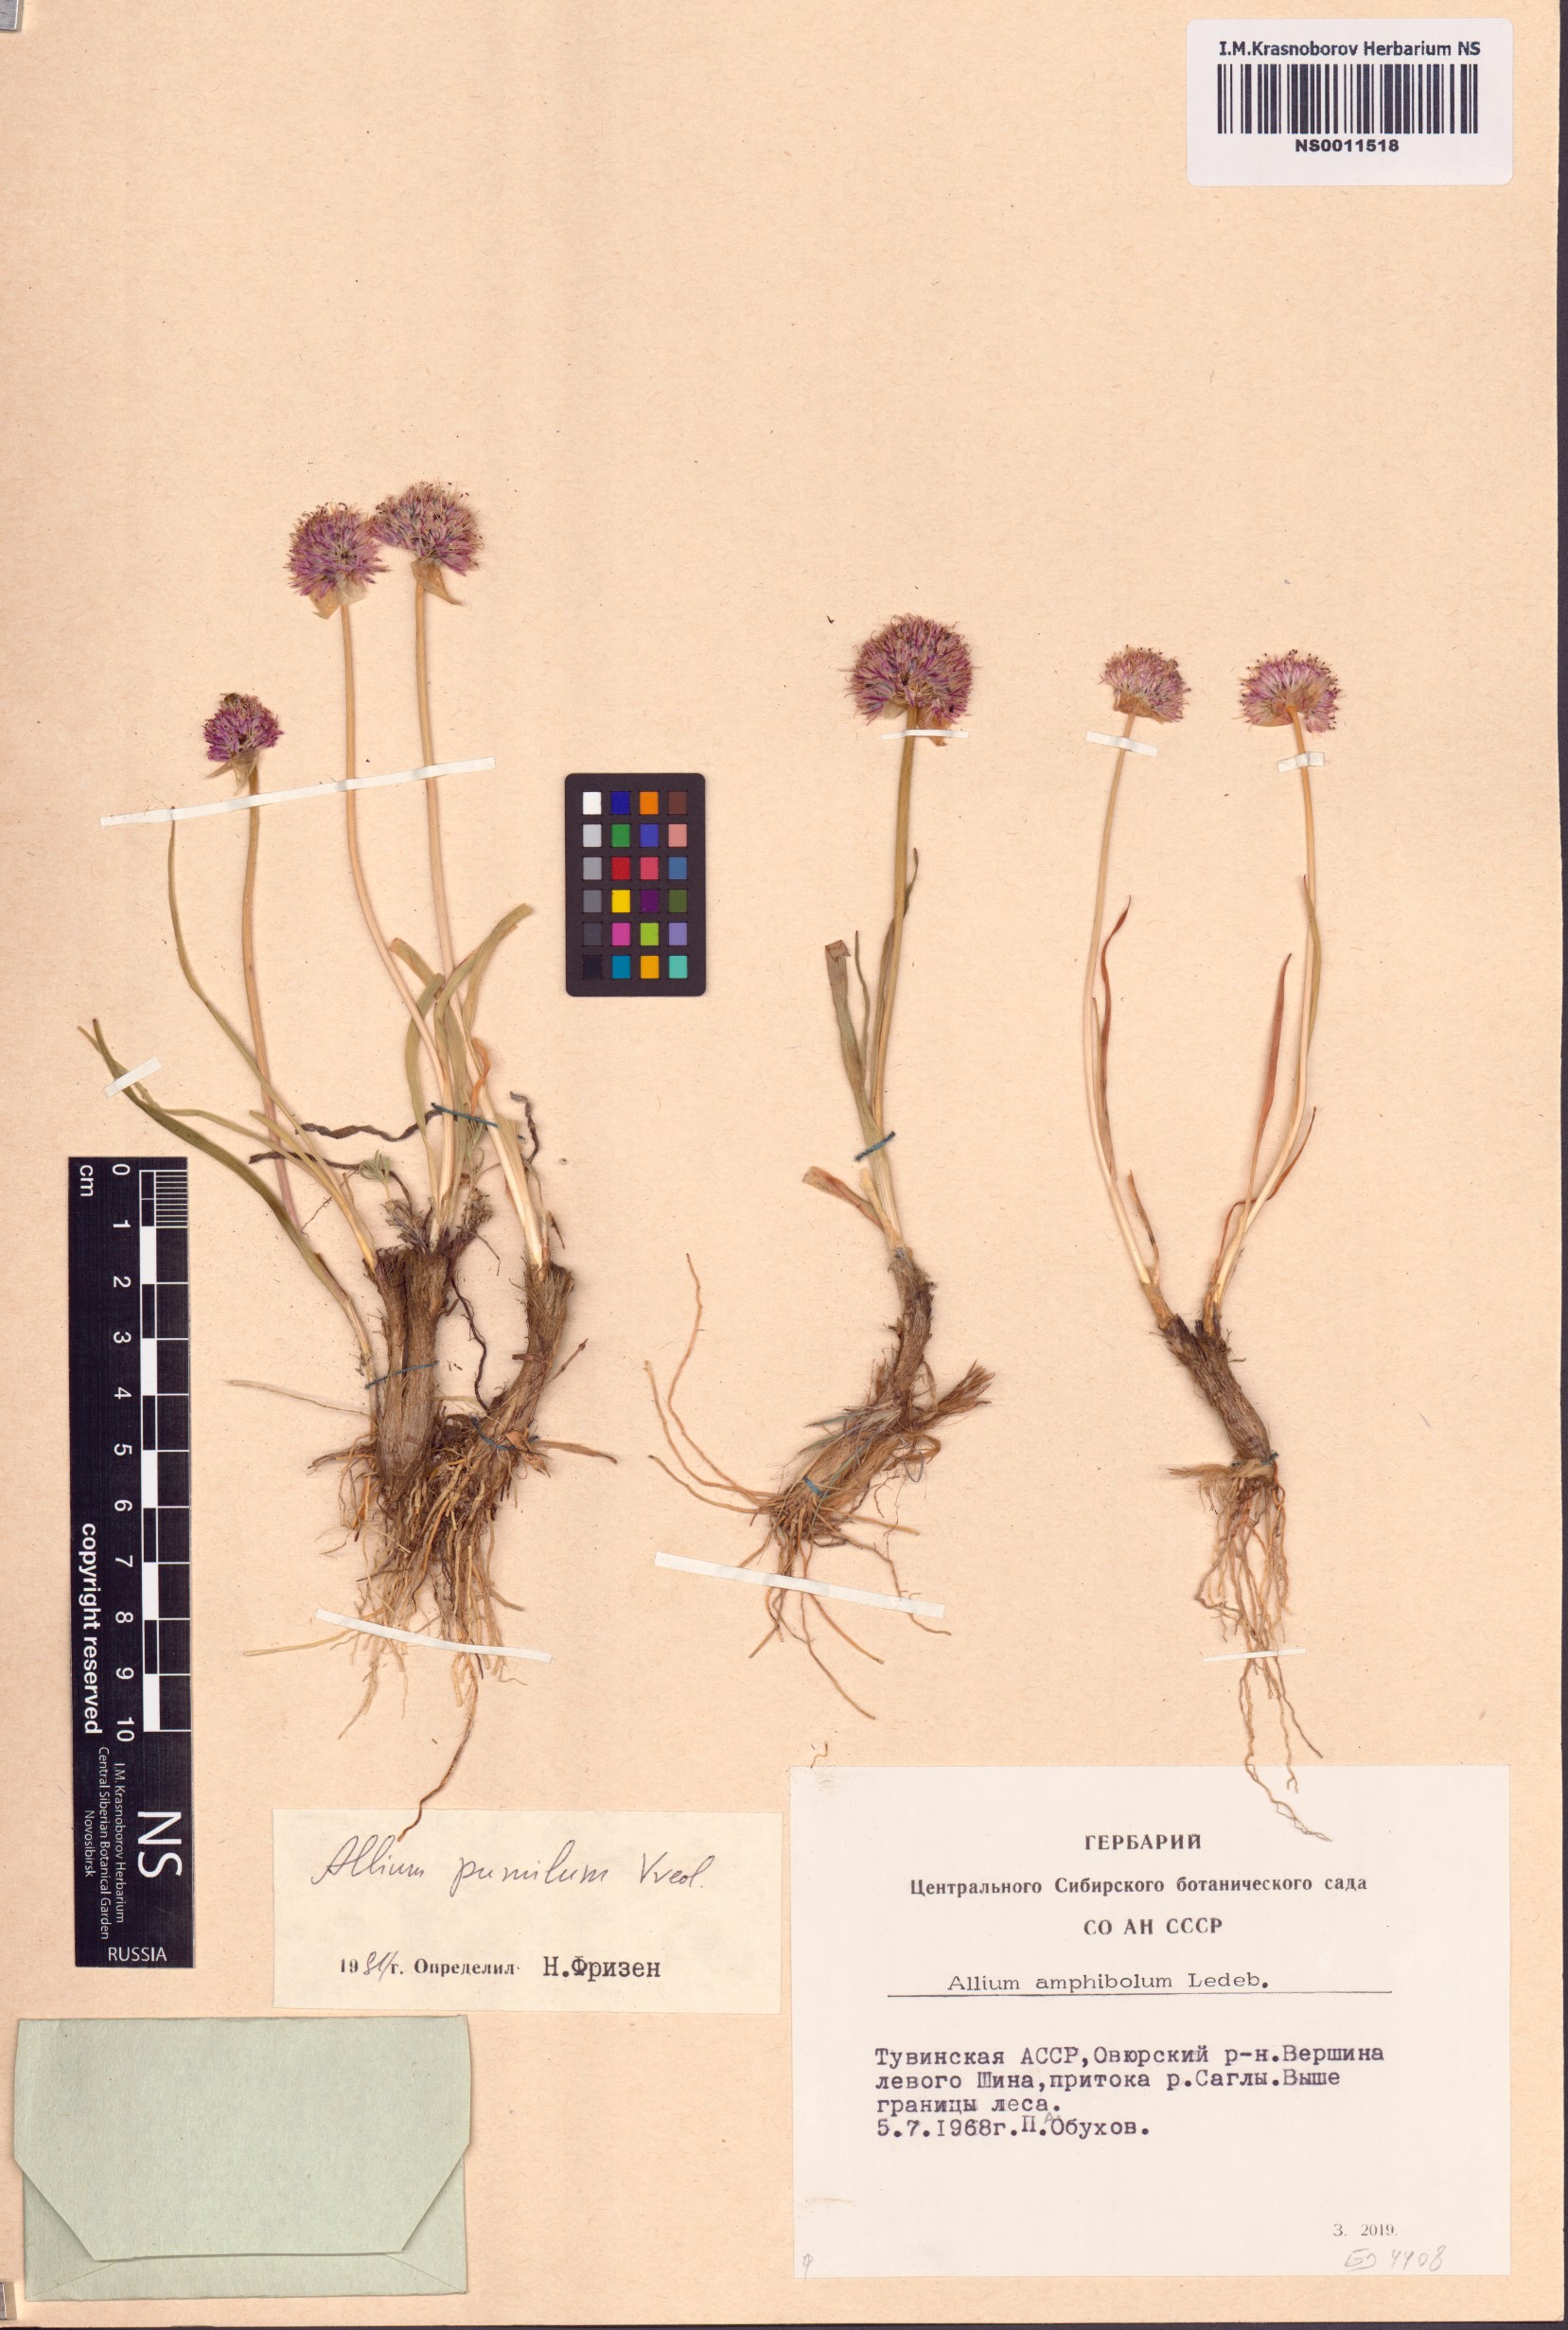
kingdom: Plantae
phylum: Tracheophyta
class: Liliopsida
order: Asparagales
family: Amaryllidaceae
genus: Allium
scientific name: Allium pumilum
